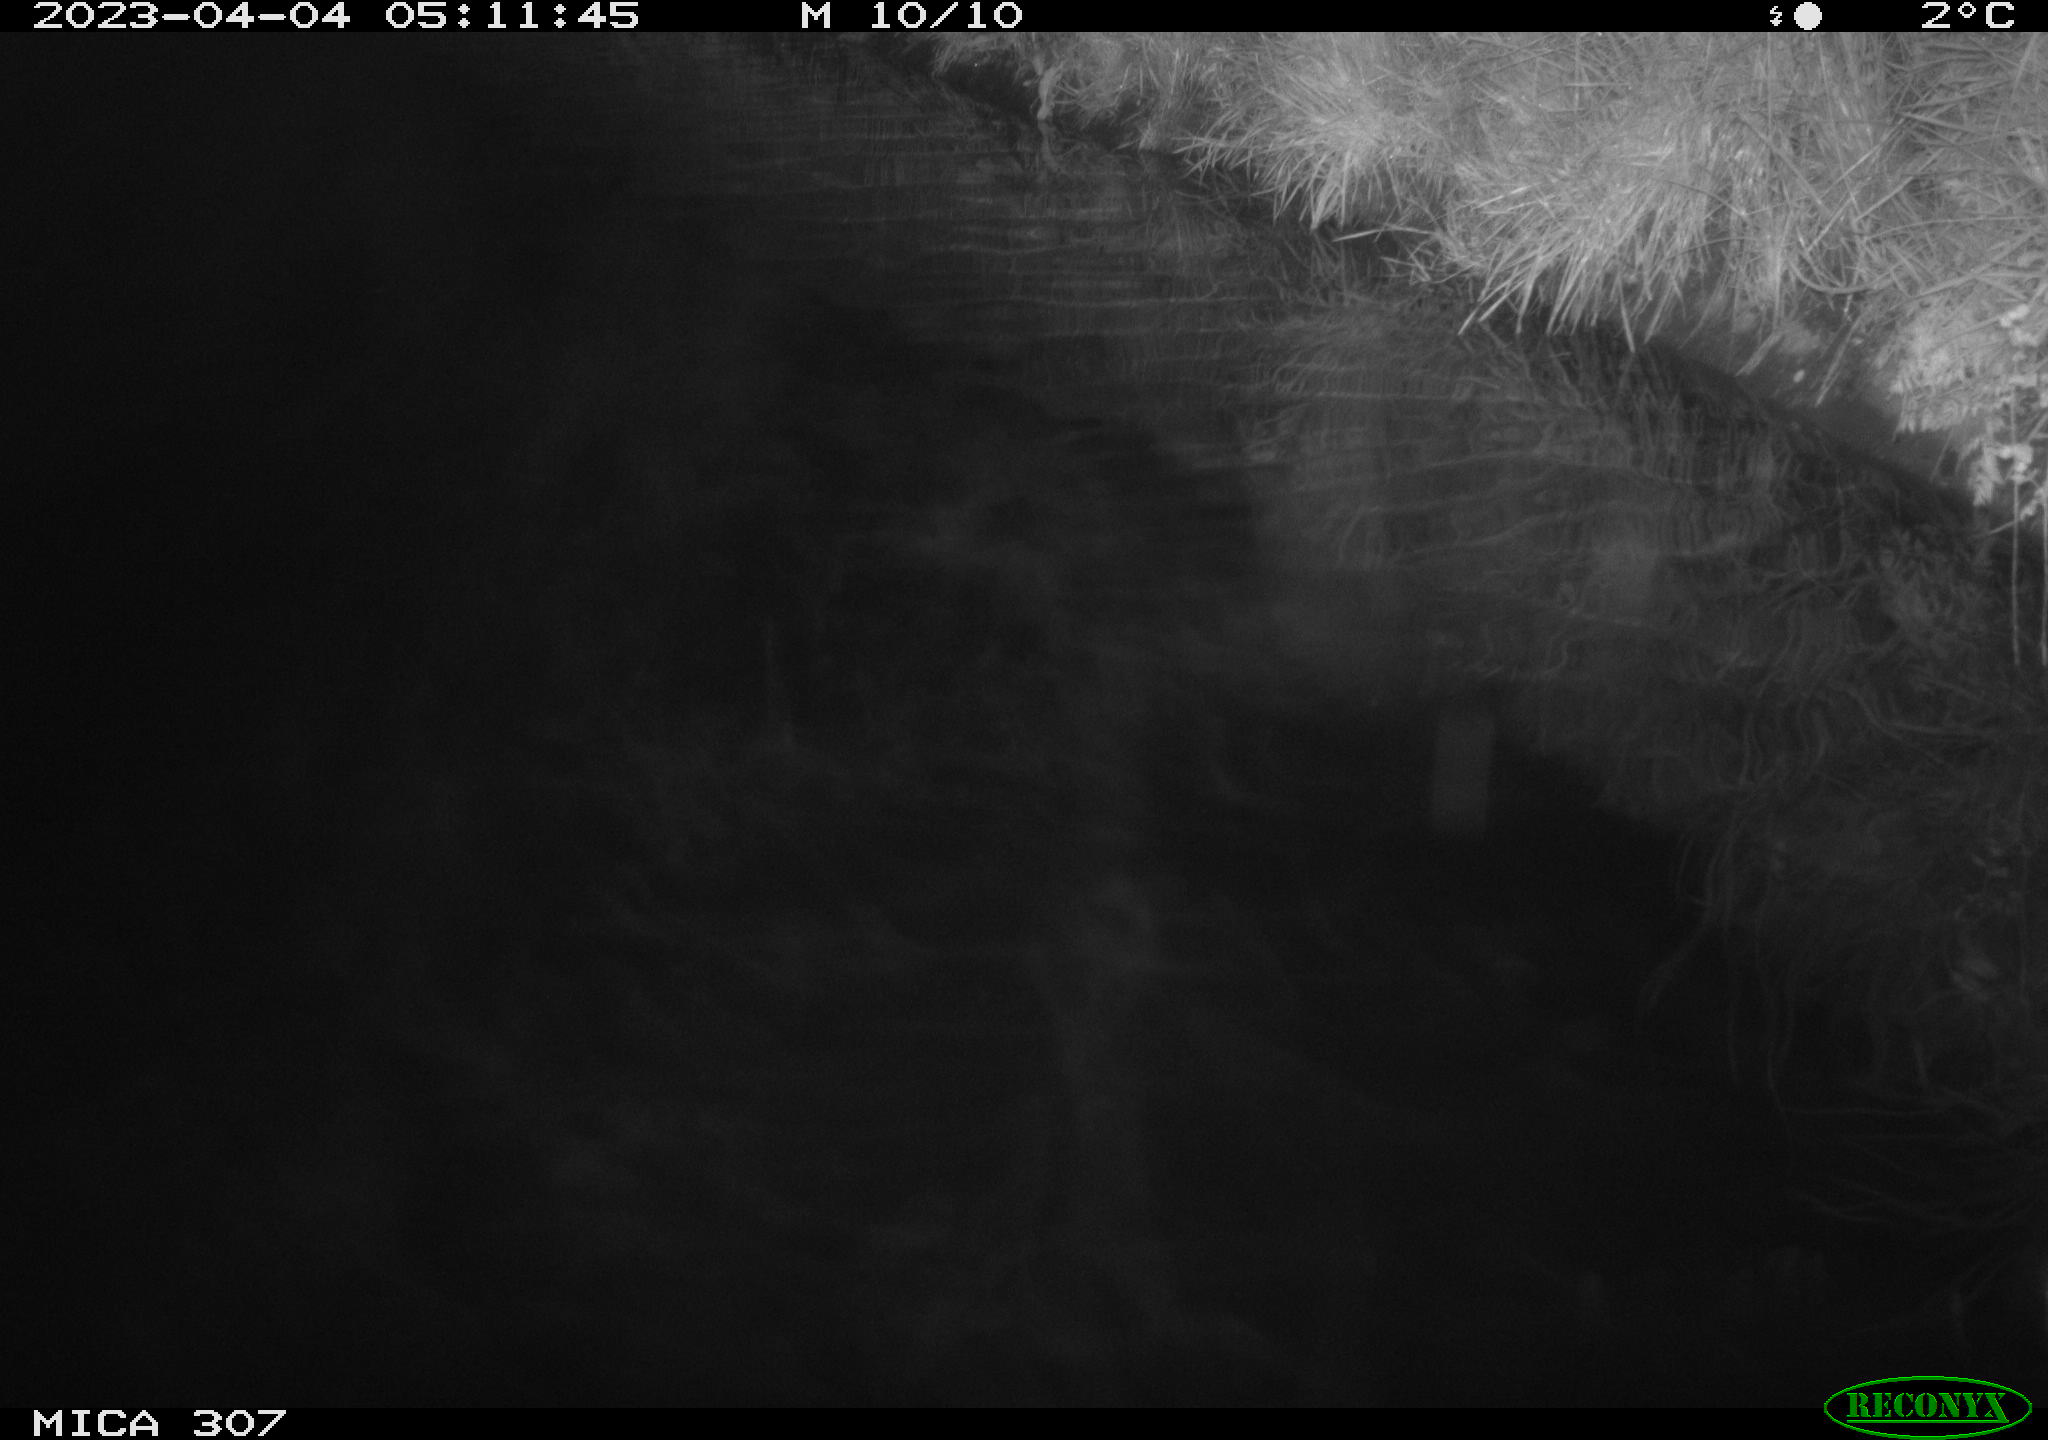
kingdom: Animalia
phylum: Chordata
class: Aves
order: Anseriformes
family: Anatidae
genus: Anas
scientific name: Anas
